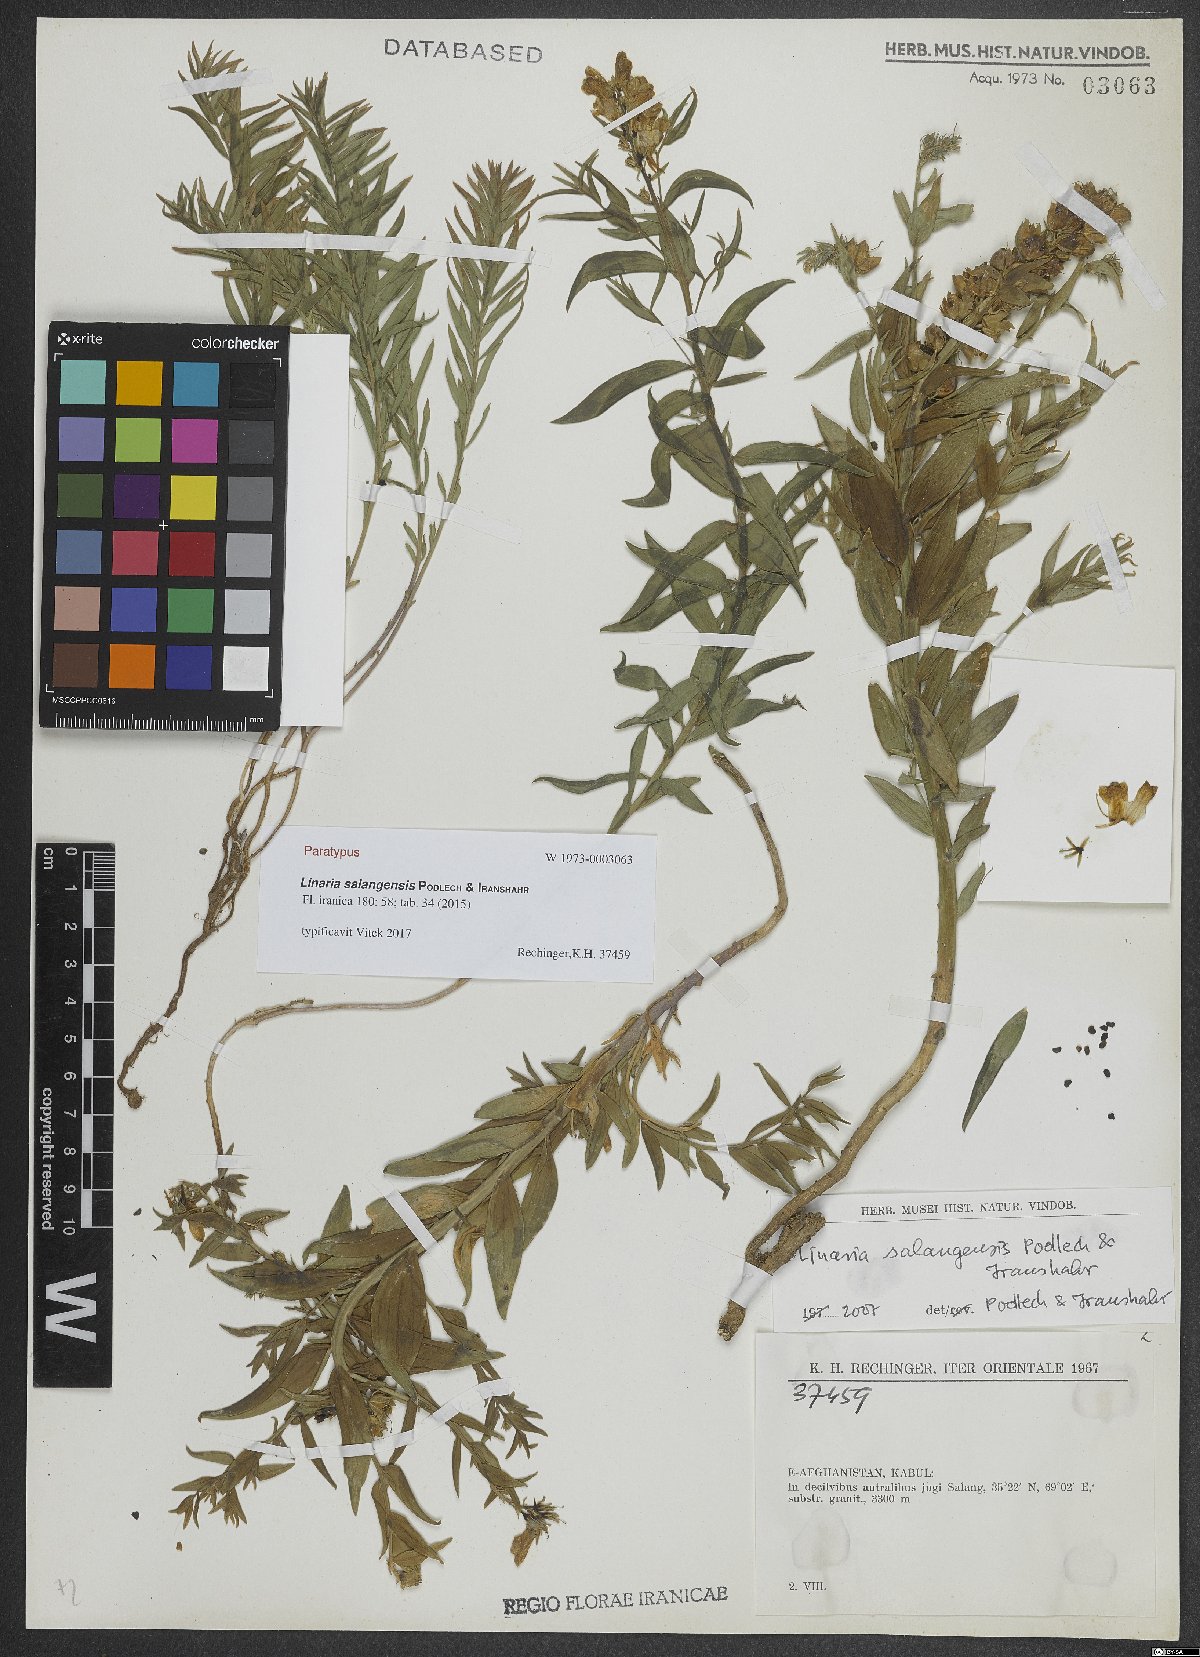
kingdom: Plantae
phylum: Tracheophyta
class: Magnoliopsida
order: Lamiales
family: Plantaginaceae
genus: Linaria
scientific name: Linaria salangensis
